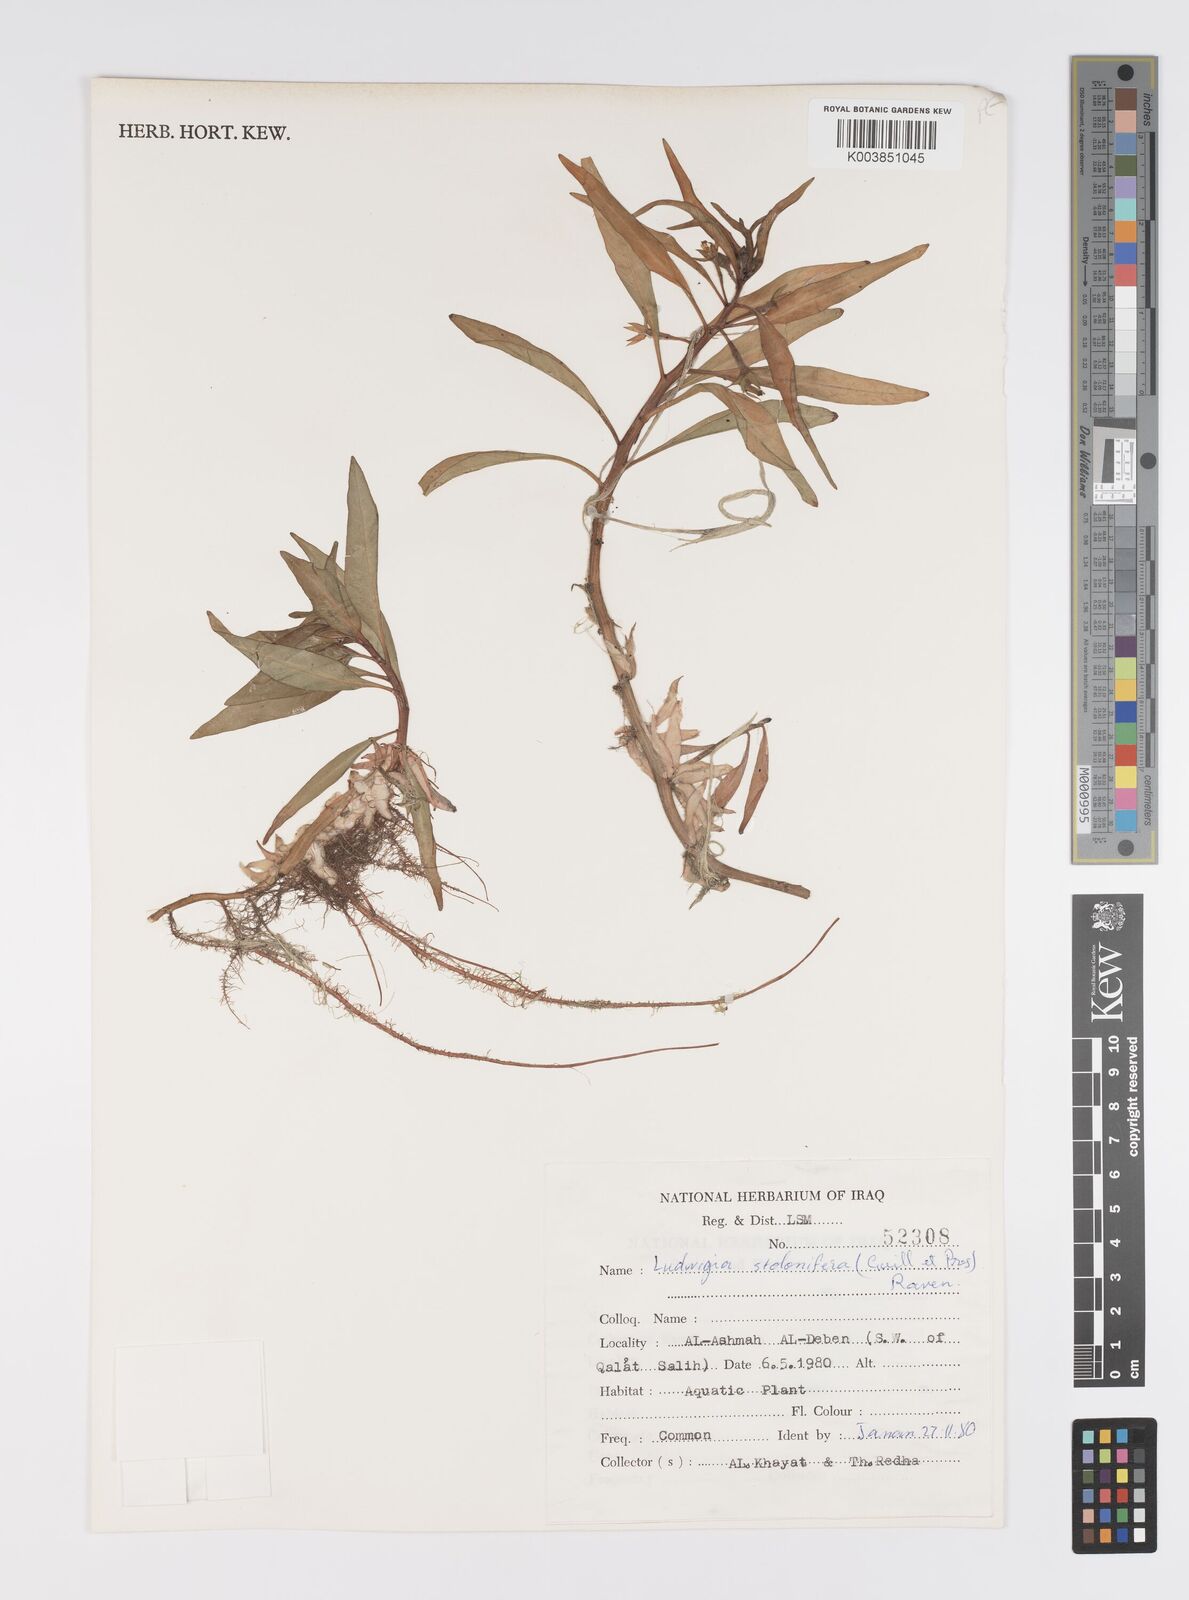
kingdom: Plantae
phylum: Tracheophyta
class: Magnoliopsida
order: Myrtales
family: Onagraceae
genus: Ludwigia
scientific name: Ludwigia adscendens
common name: Creeping water primrose
